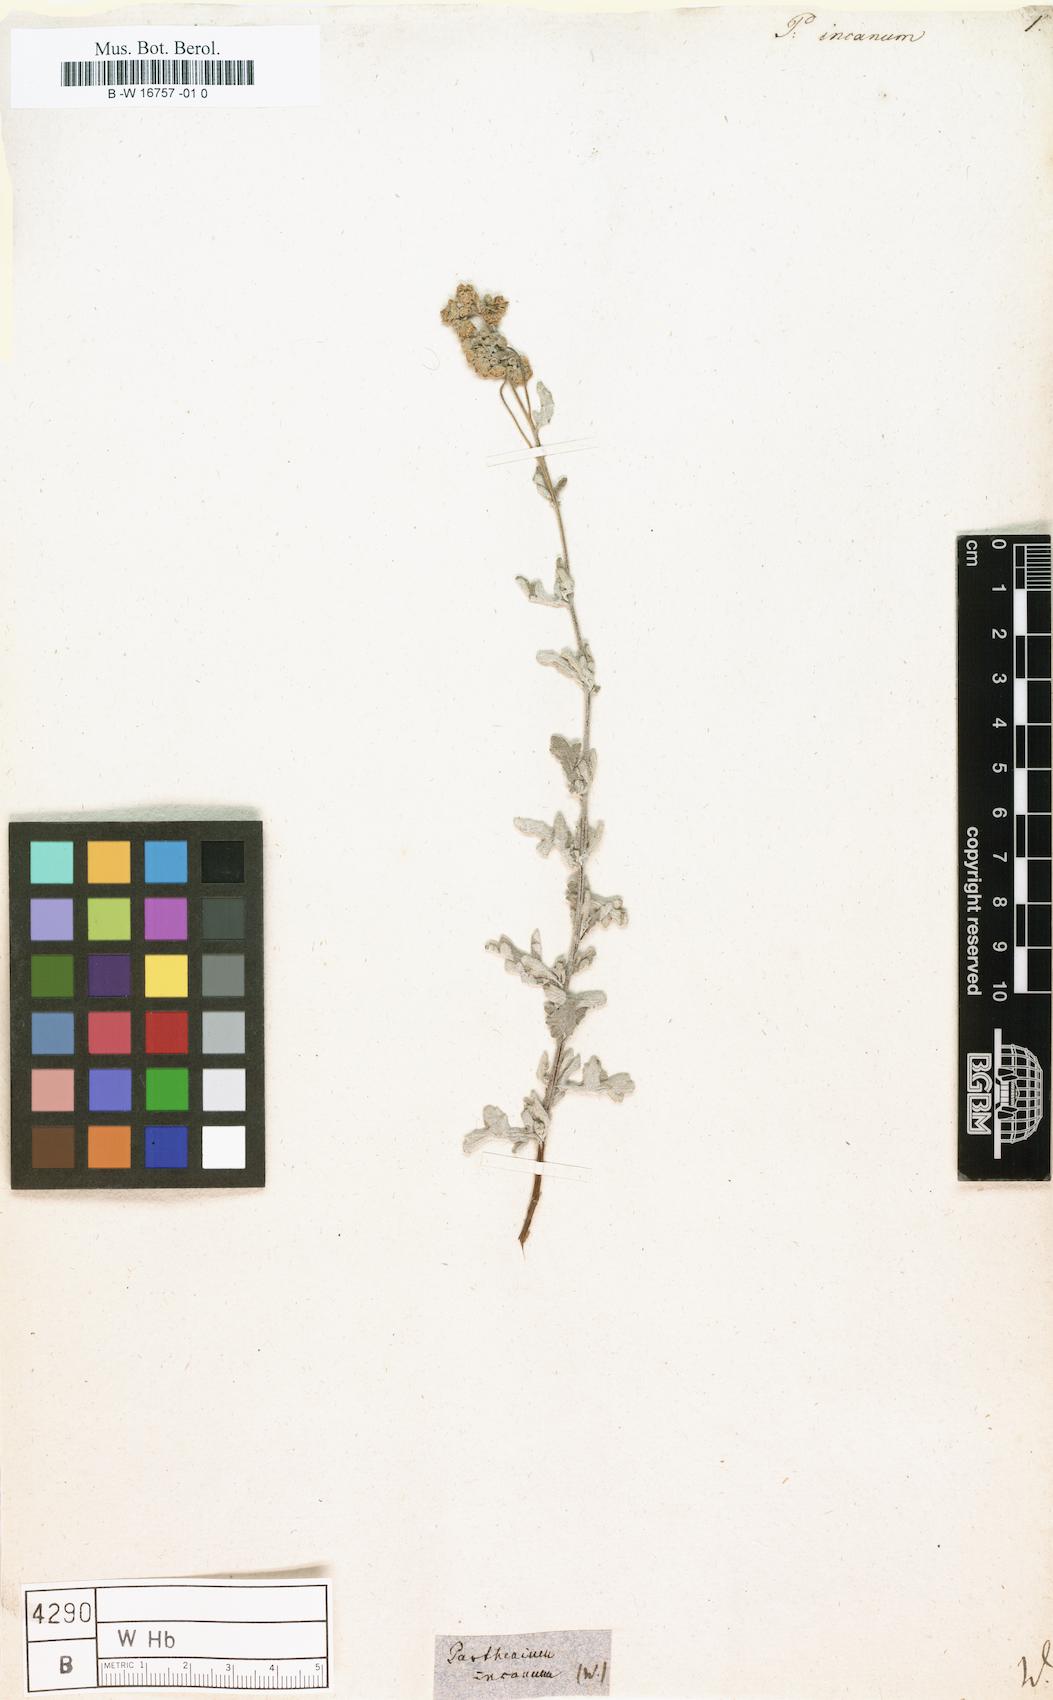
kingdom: Plantae
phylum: Tracheophyta
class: Magnoliopsida
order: Asterales
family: Asteraceae
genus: Parthenium
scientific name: Parthenium incanum
